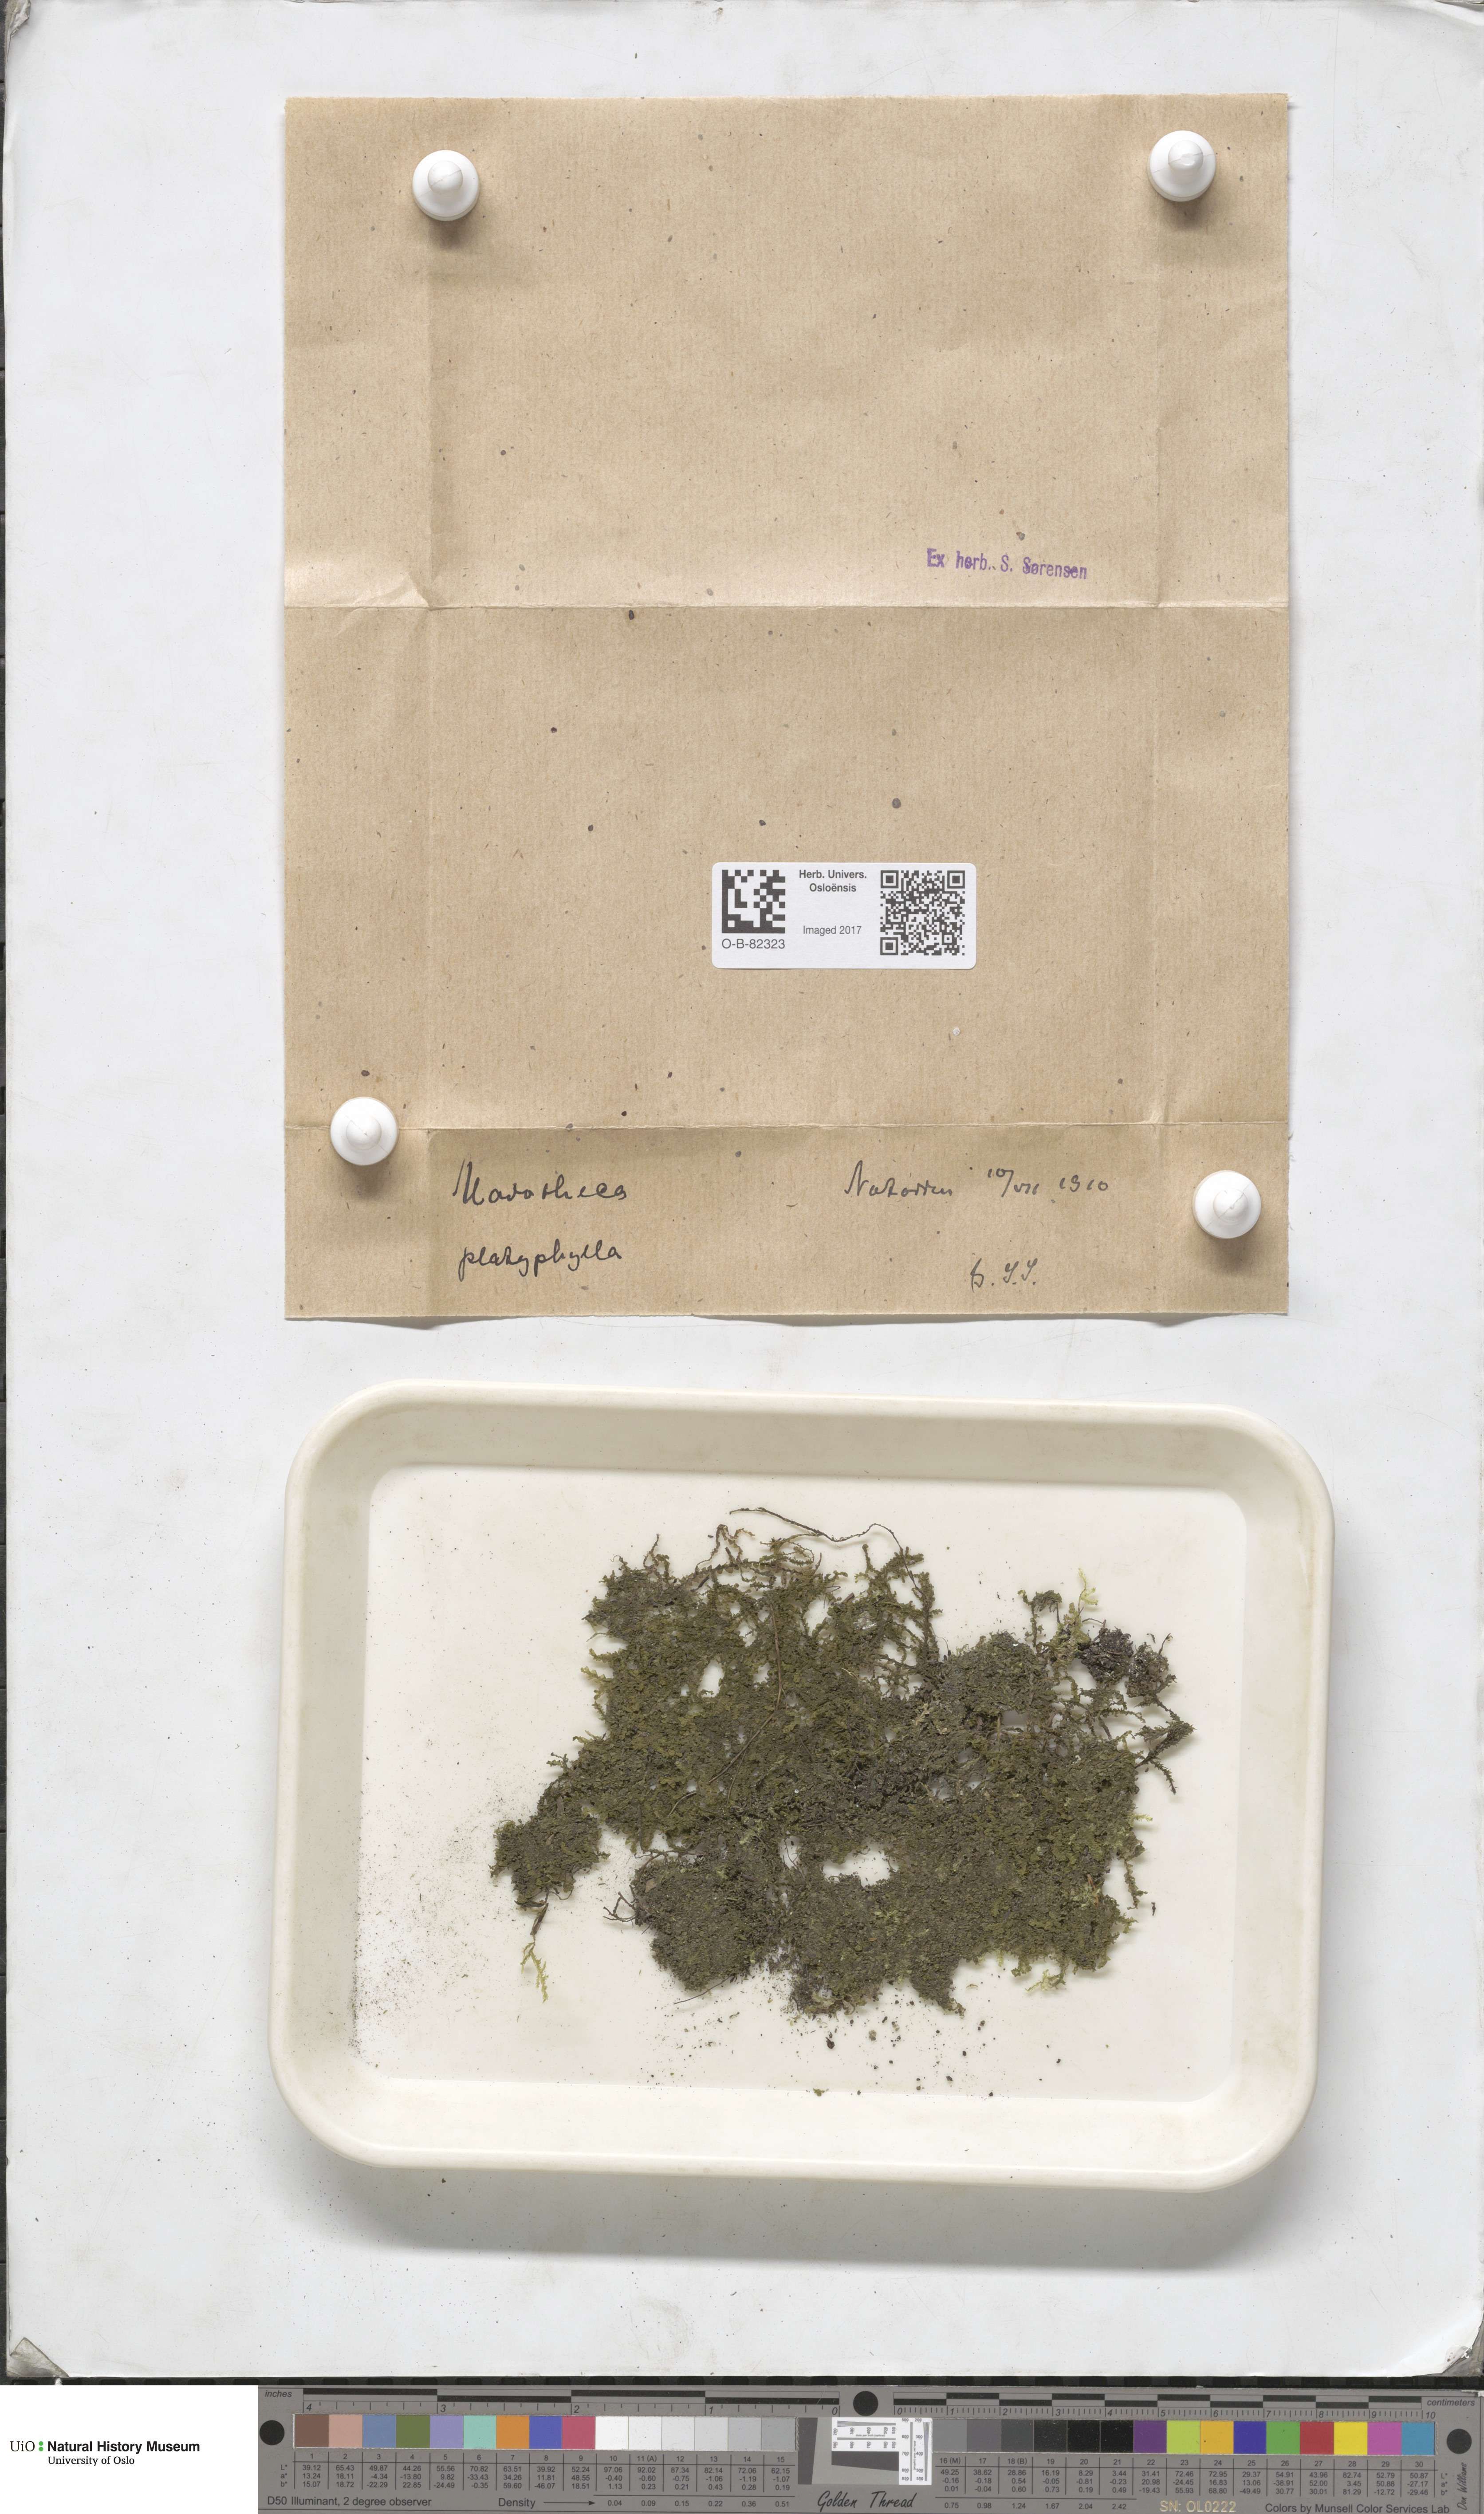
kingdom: Plantae
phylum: Marchantiophyta
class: Jungermanniopsida
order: Porellales
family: Porellaceae
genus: Porella
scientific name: Porella platyphylla
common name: Wall scalewort
